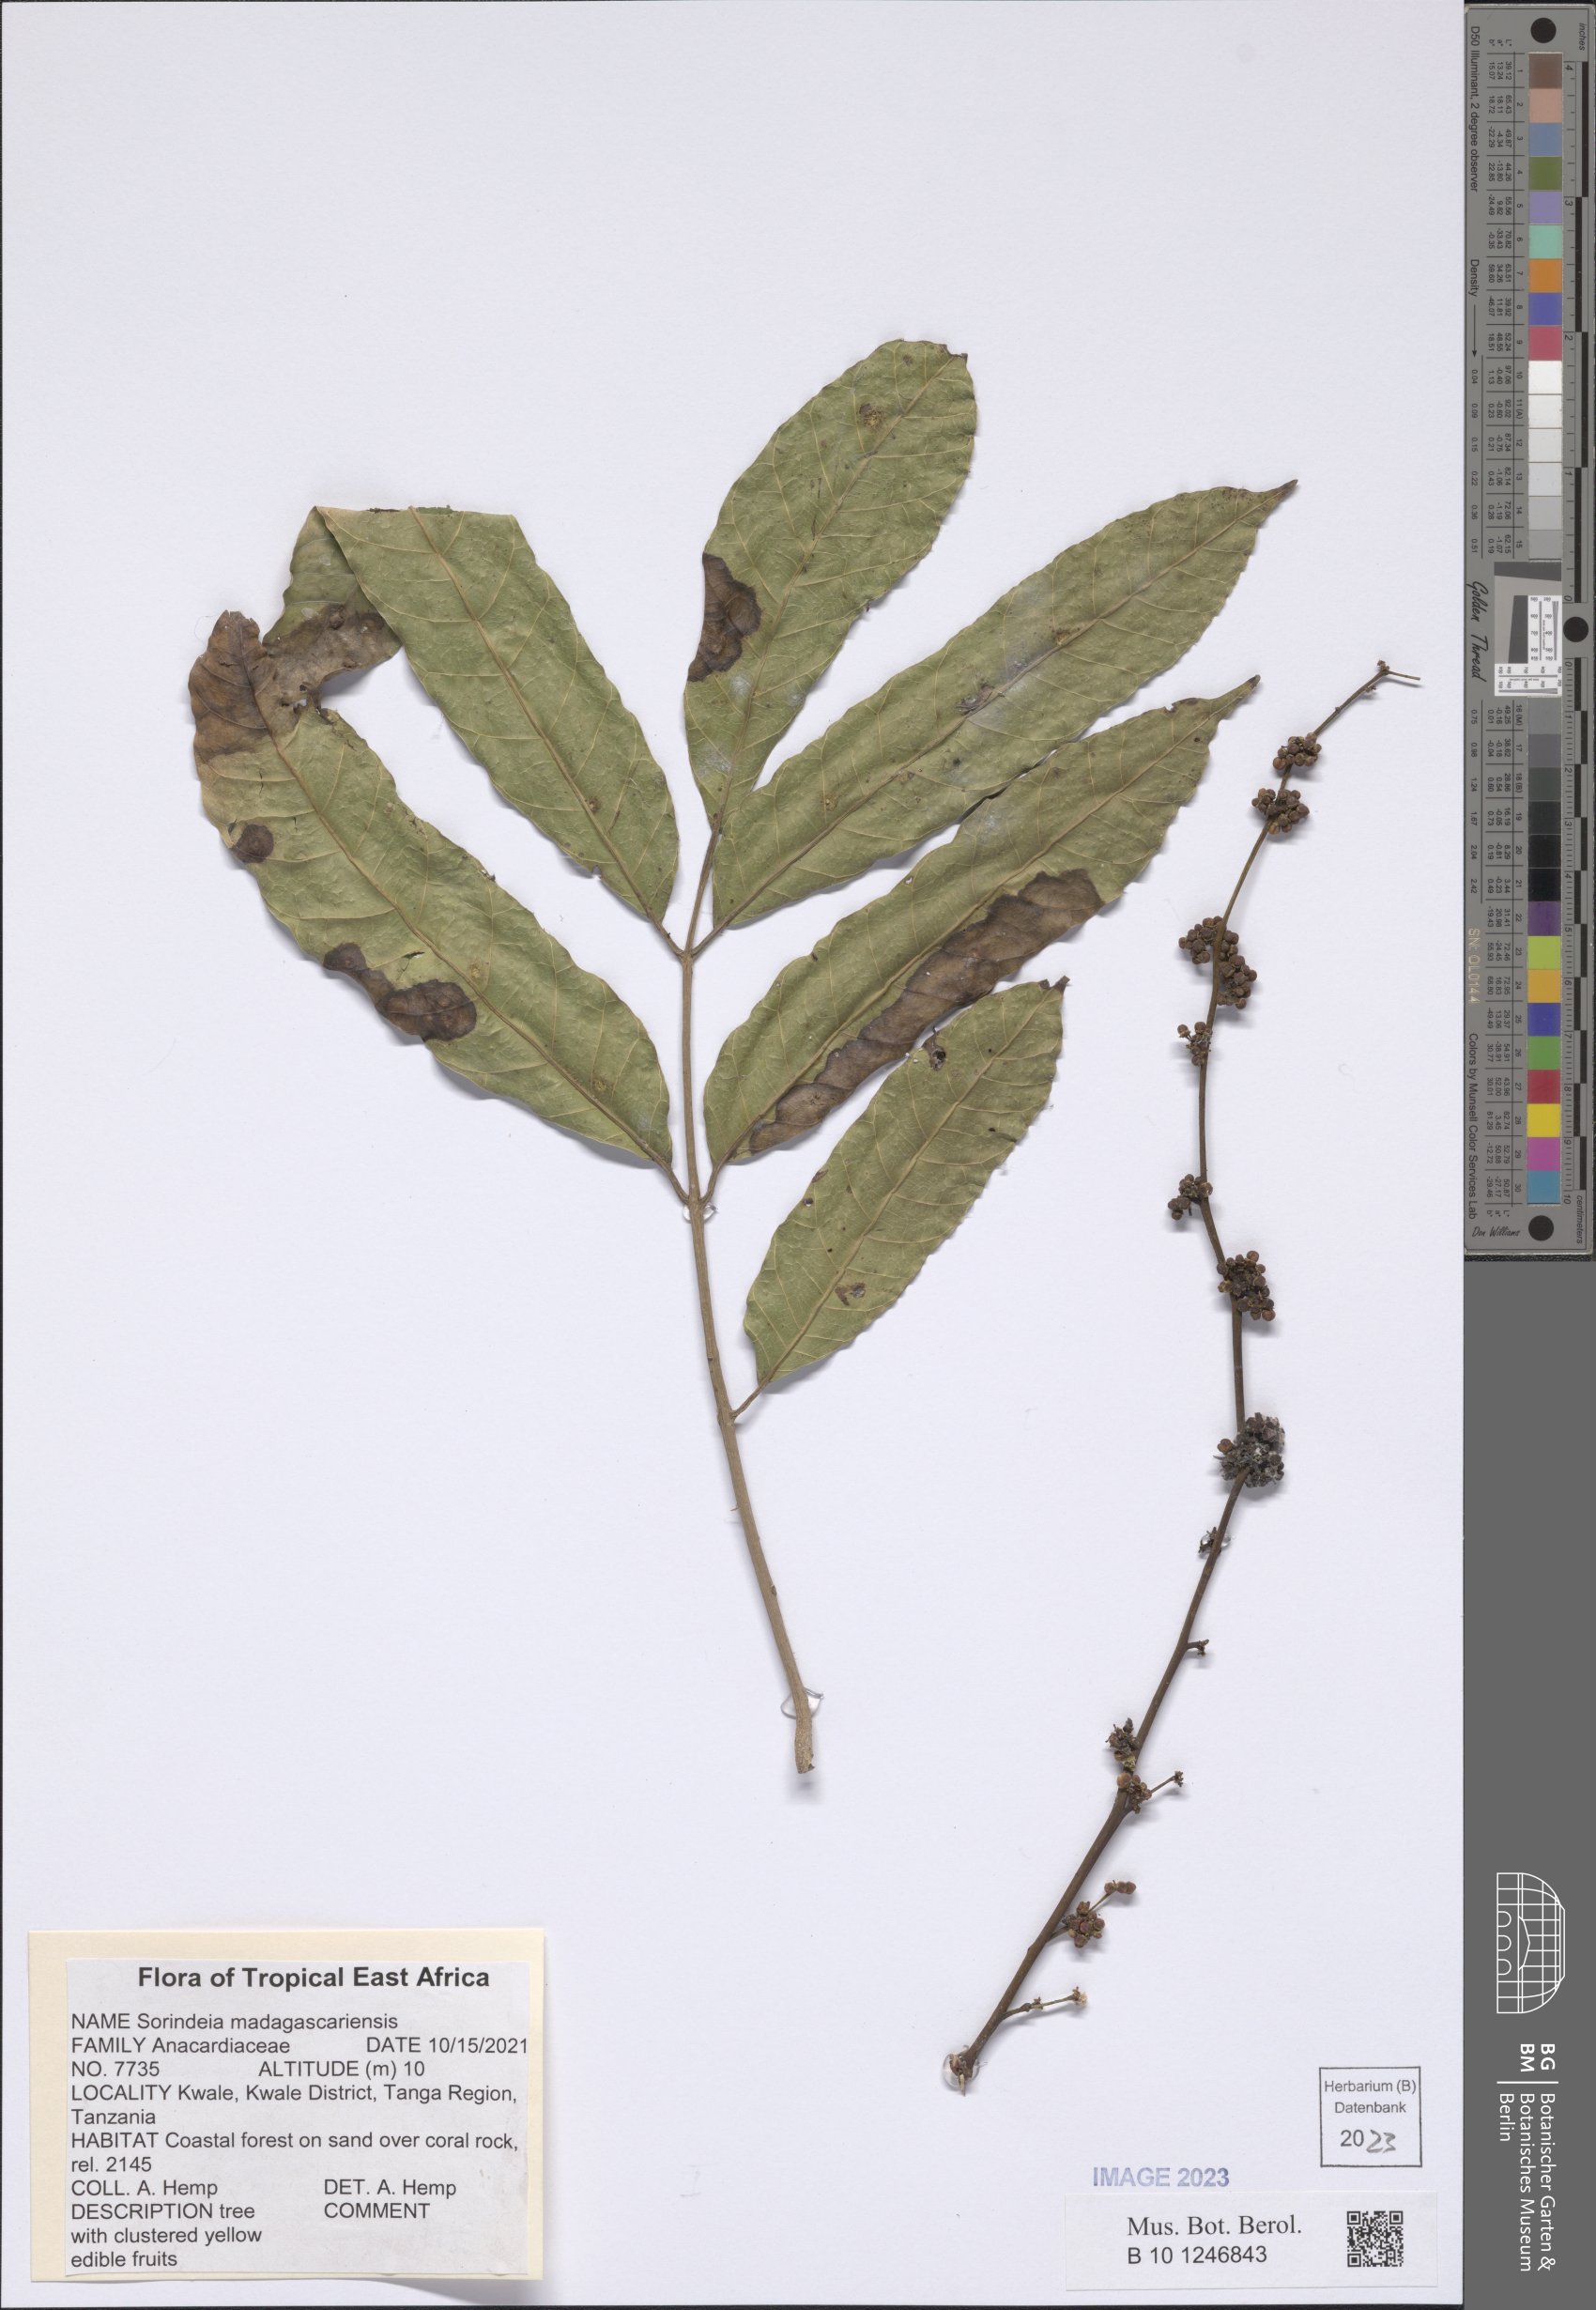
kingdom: Plantae
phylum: Tracheophyta
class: Magnoliopsida
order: Sapindales
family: Anacardiaceae
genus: Sorindeia
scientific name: Sorindeia madagascariensis
